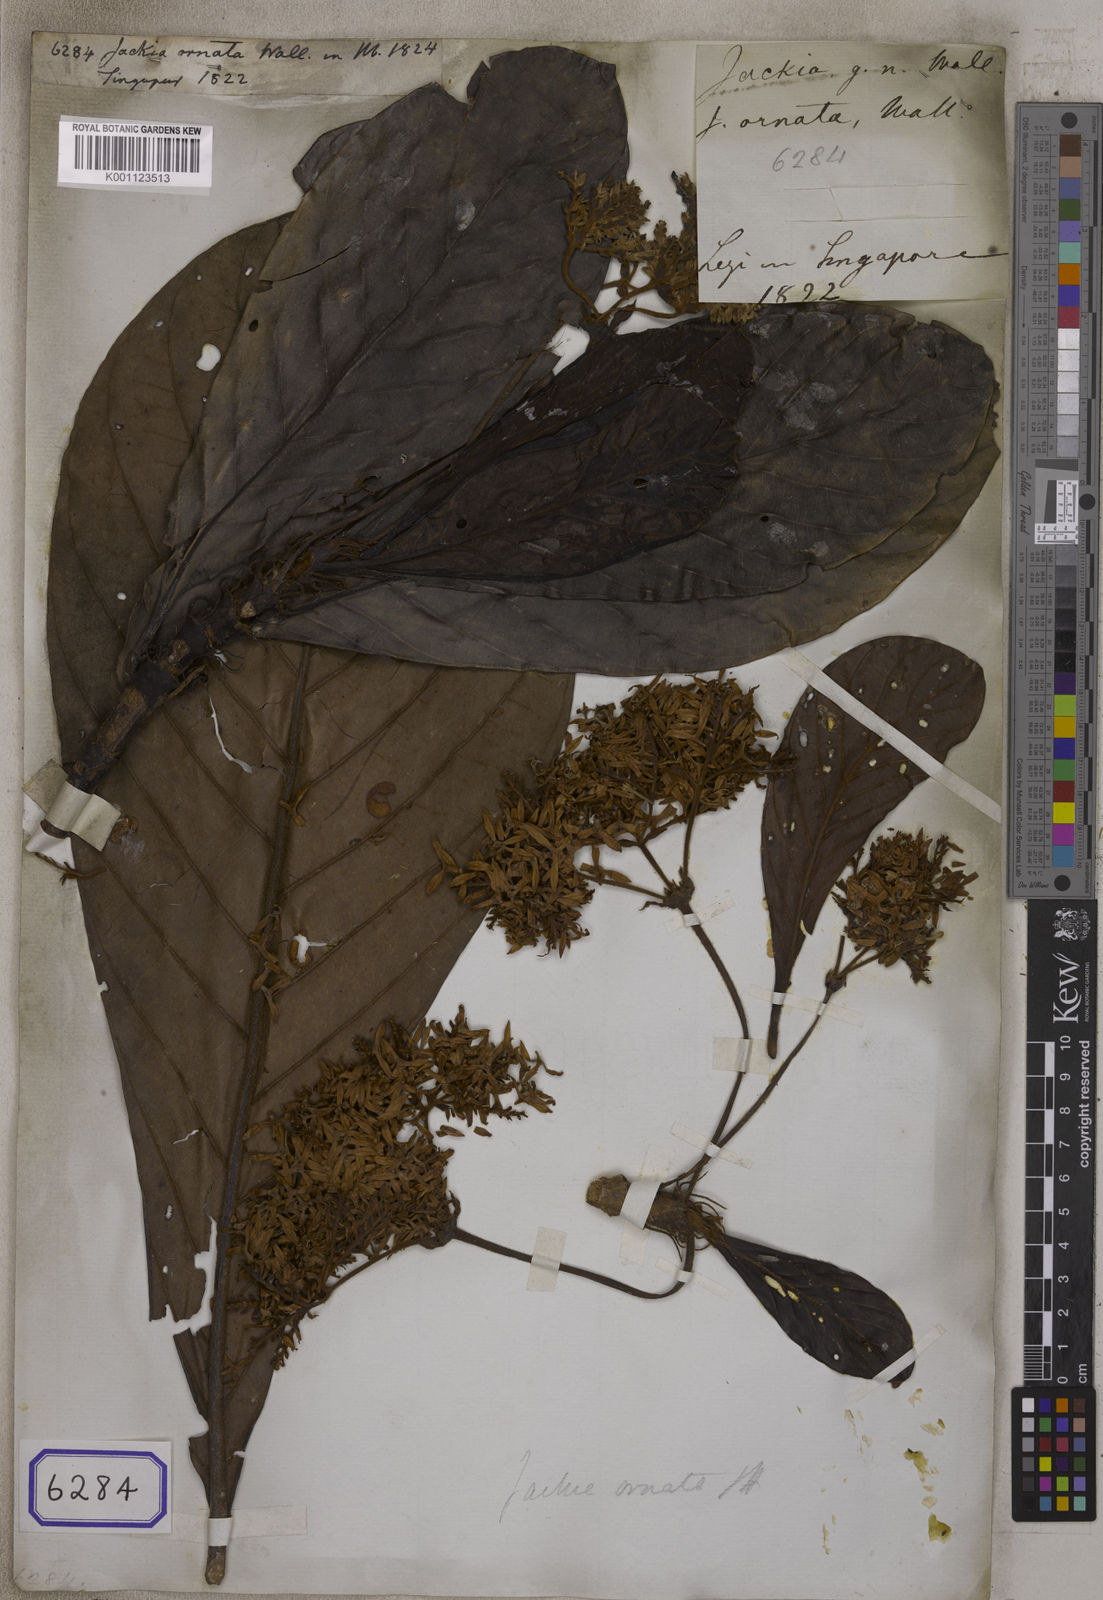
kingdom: Plantae
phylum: Tracheophyta
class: Magnoliopsida
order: Fabales
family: Polygalaceae
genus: Jackia
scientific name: Jackia
